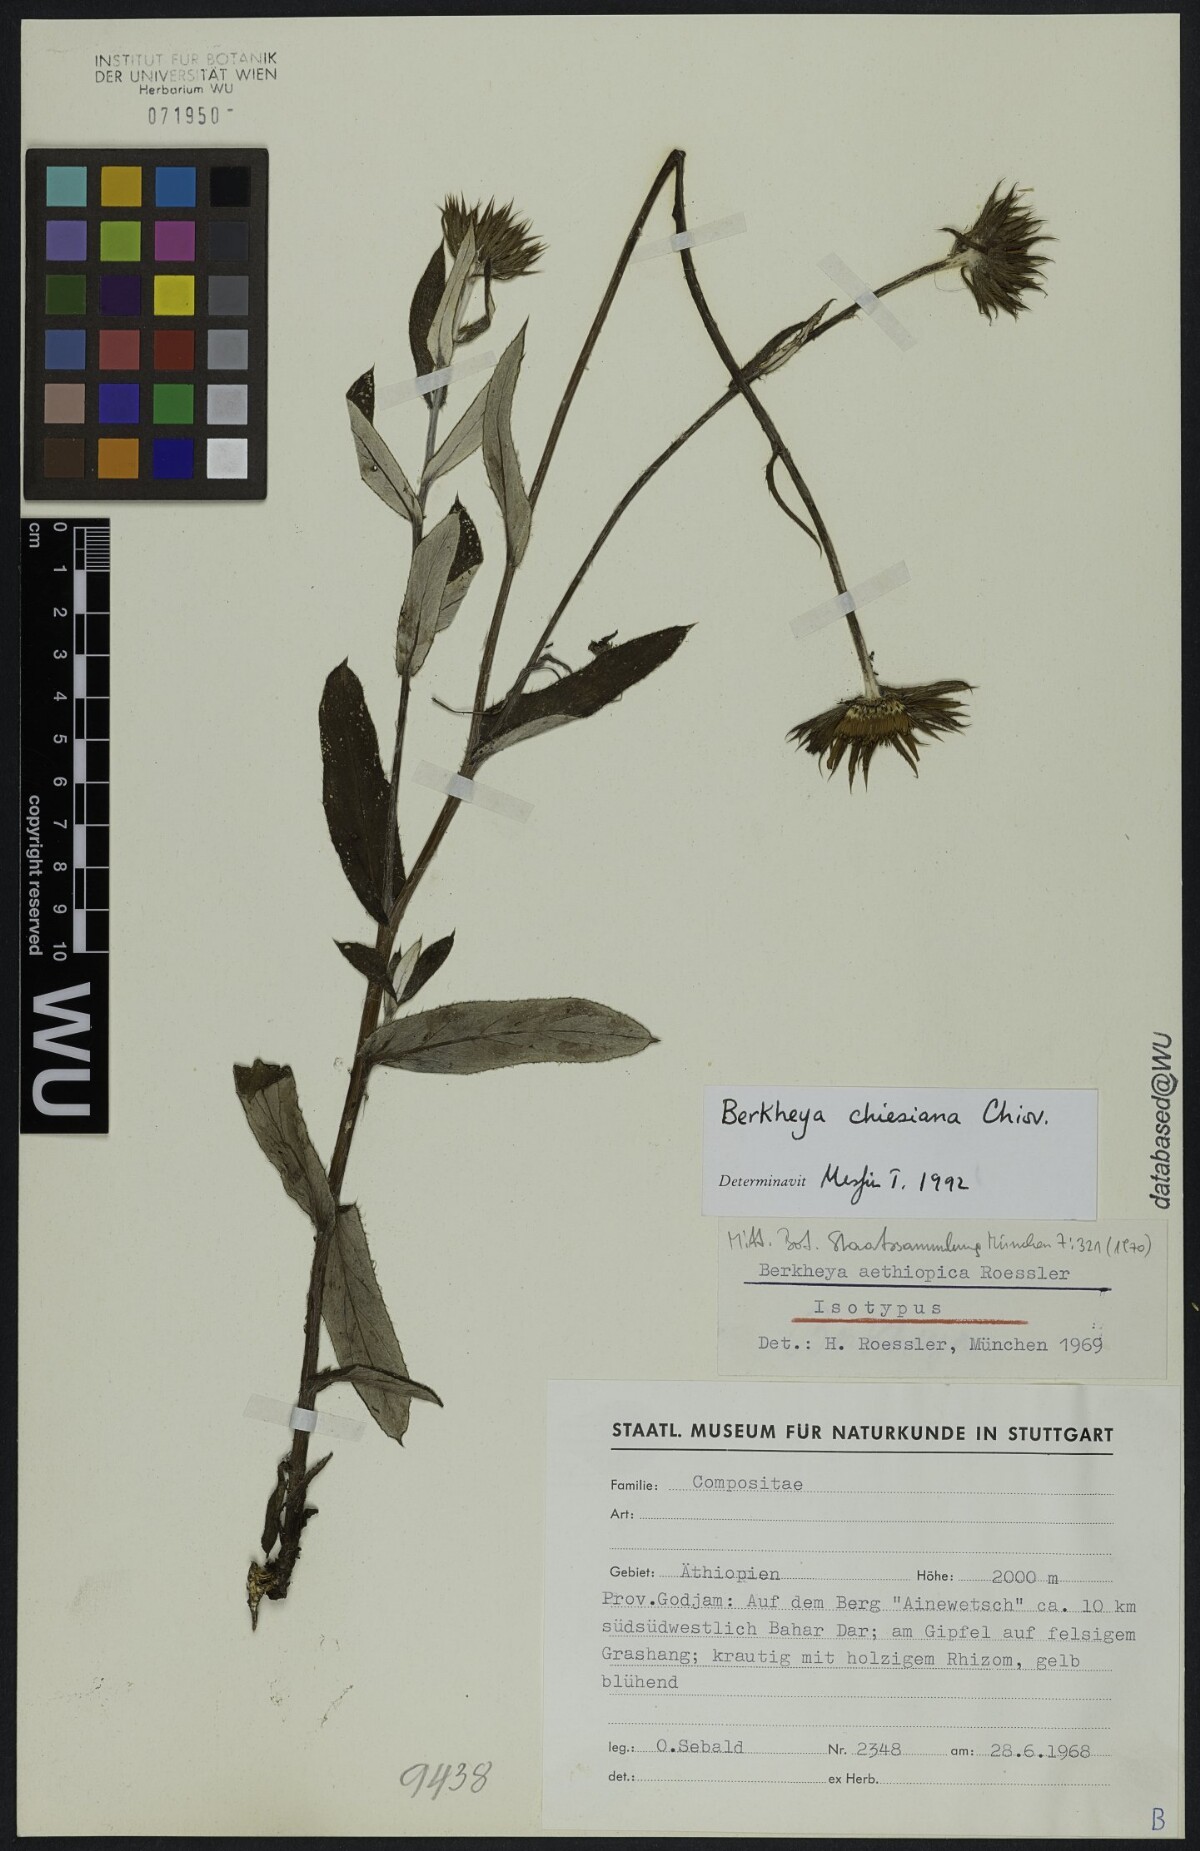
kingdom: Plantae
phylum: Tracheophyta
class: Magnoliopsida
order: Asterales
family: Asteraceae
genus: Berkheya
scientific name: Berkheya chiesiana
